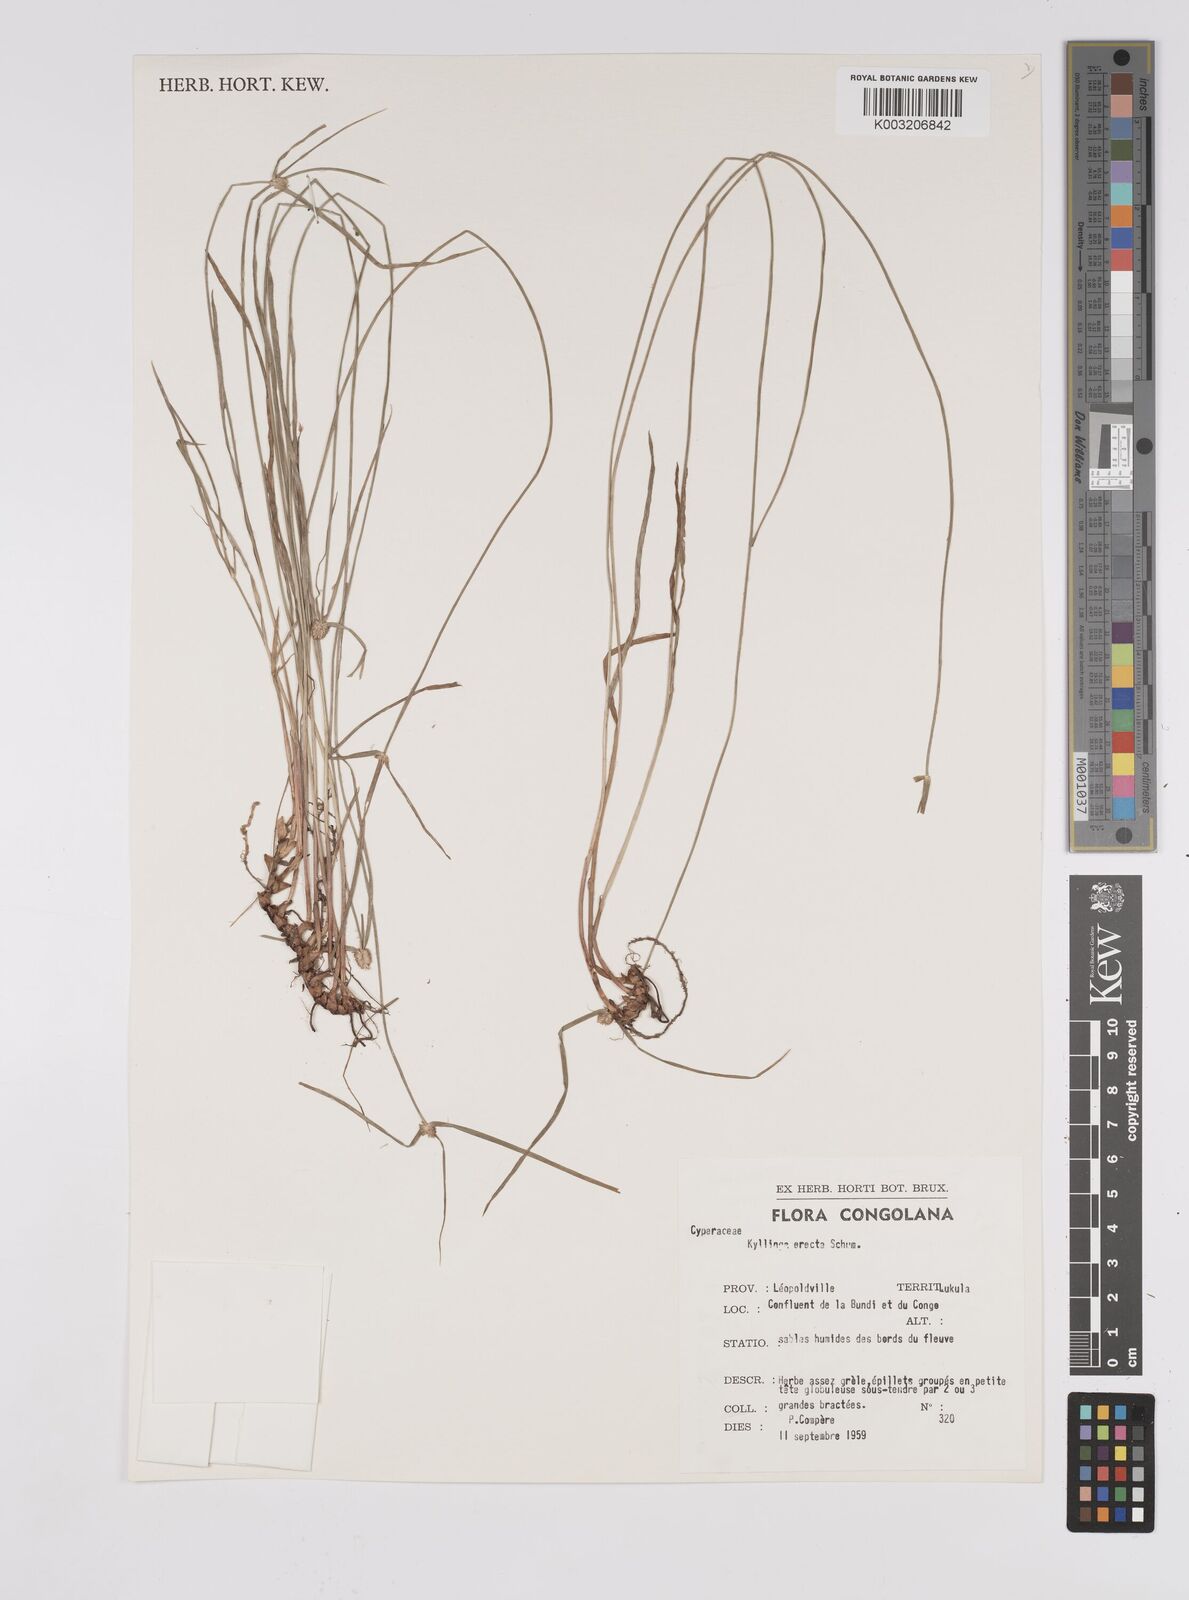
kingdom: Plantae
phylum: Tracheophyta
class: Liliopsida
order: Poales
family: Cyperaceae
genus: Cyperus
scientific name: Cyperus erectus
